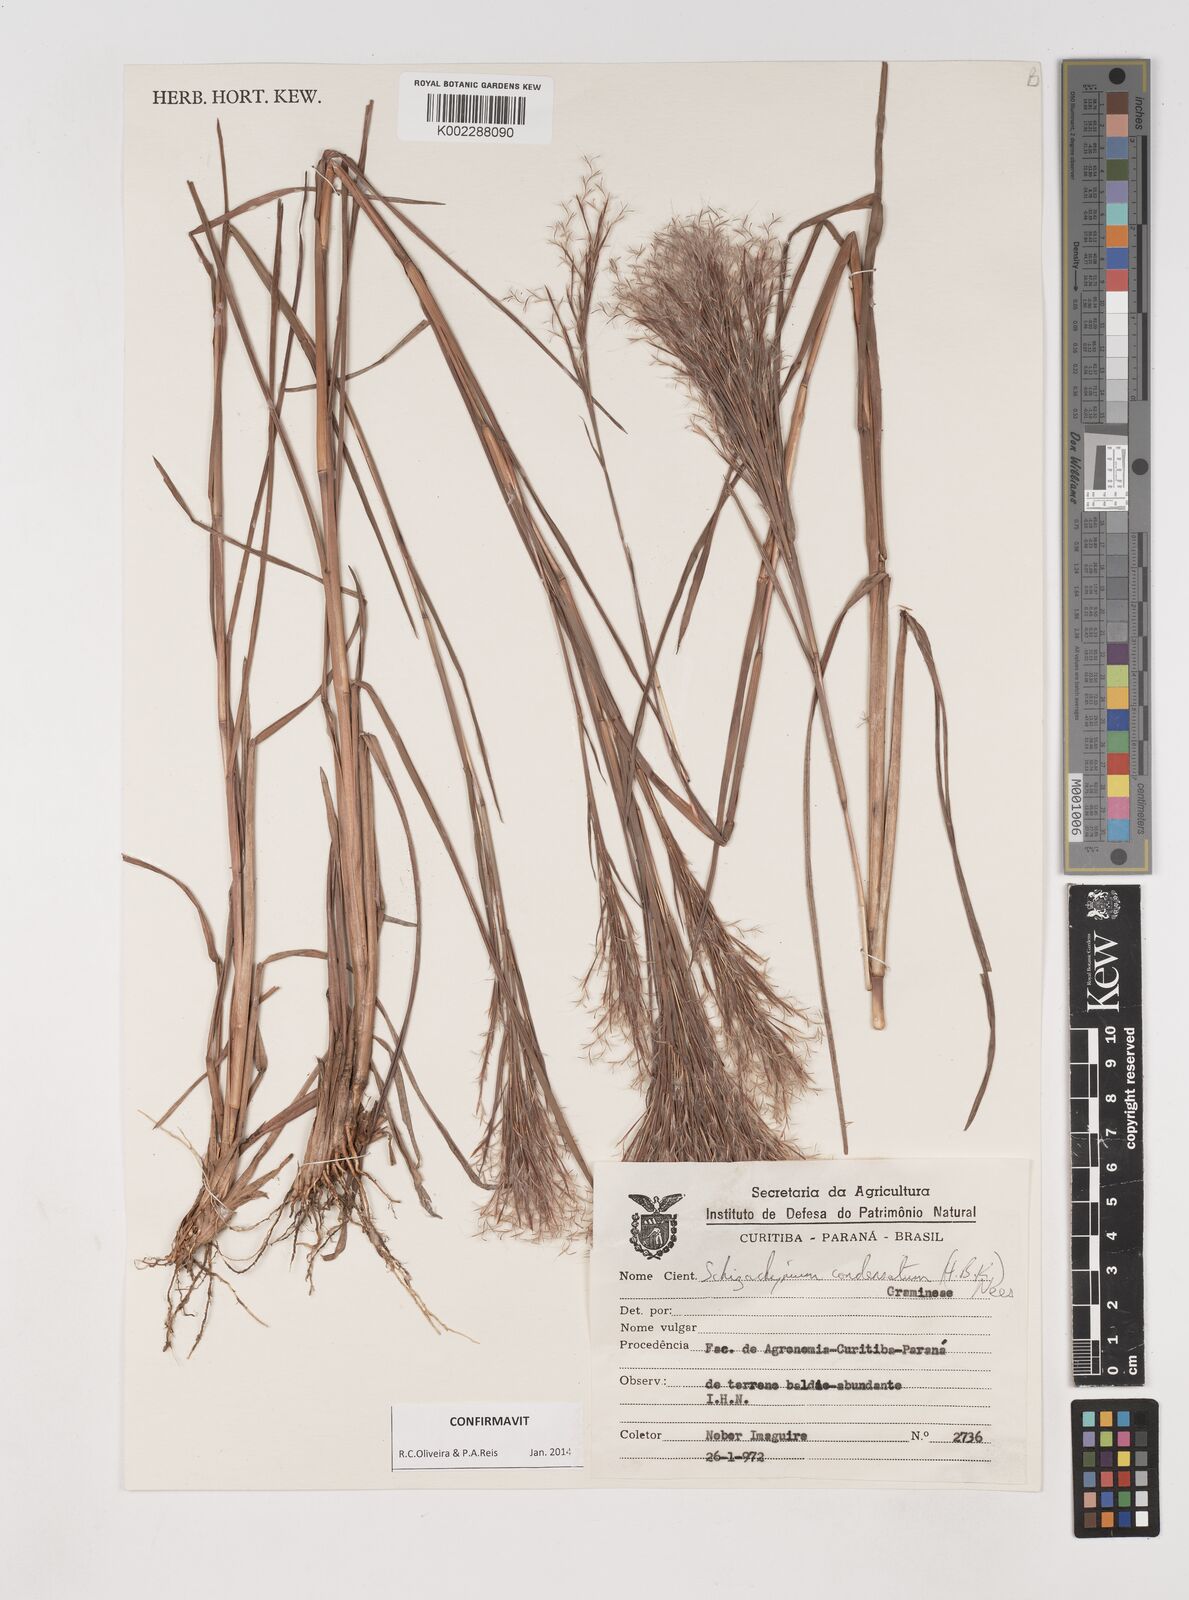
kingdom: Plantae
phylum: Tracheophyta
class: Liliopsida
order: Poales
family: Poaceae
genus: Schizachyrium
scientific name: Schizachyrium condensatum
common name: Bush beardgrass
